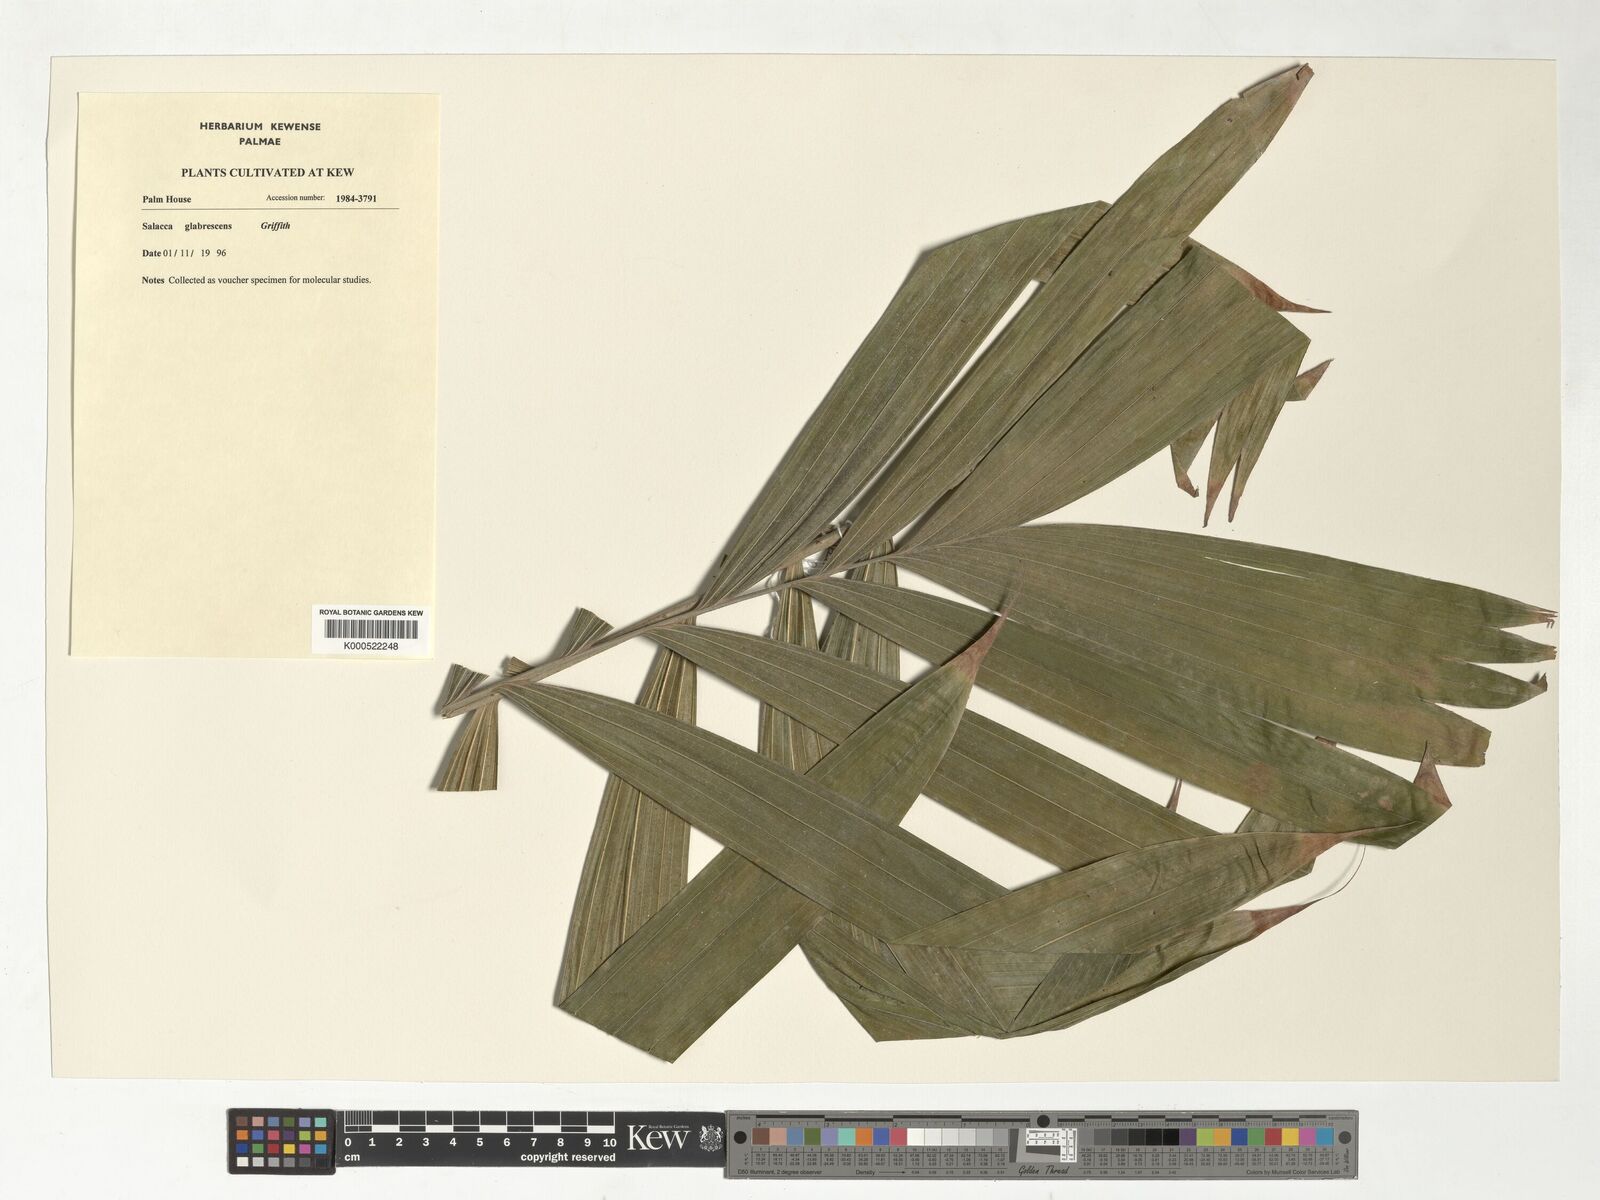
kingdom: Plantae
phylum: Tracheophyta
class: Liliopsida
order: Arecales
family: Arecaceae
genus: Salacca
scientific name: Salacca glabrescens
